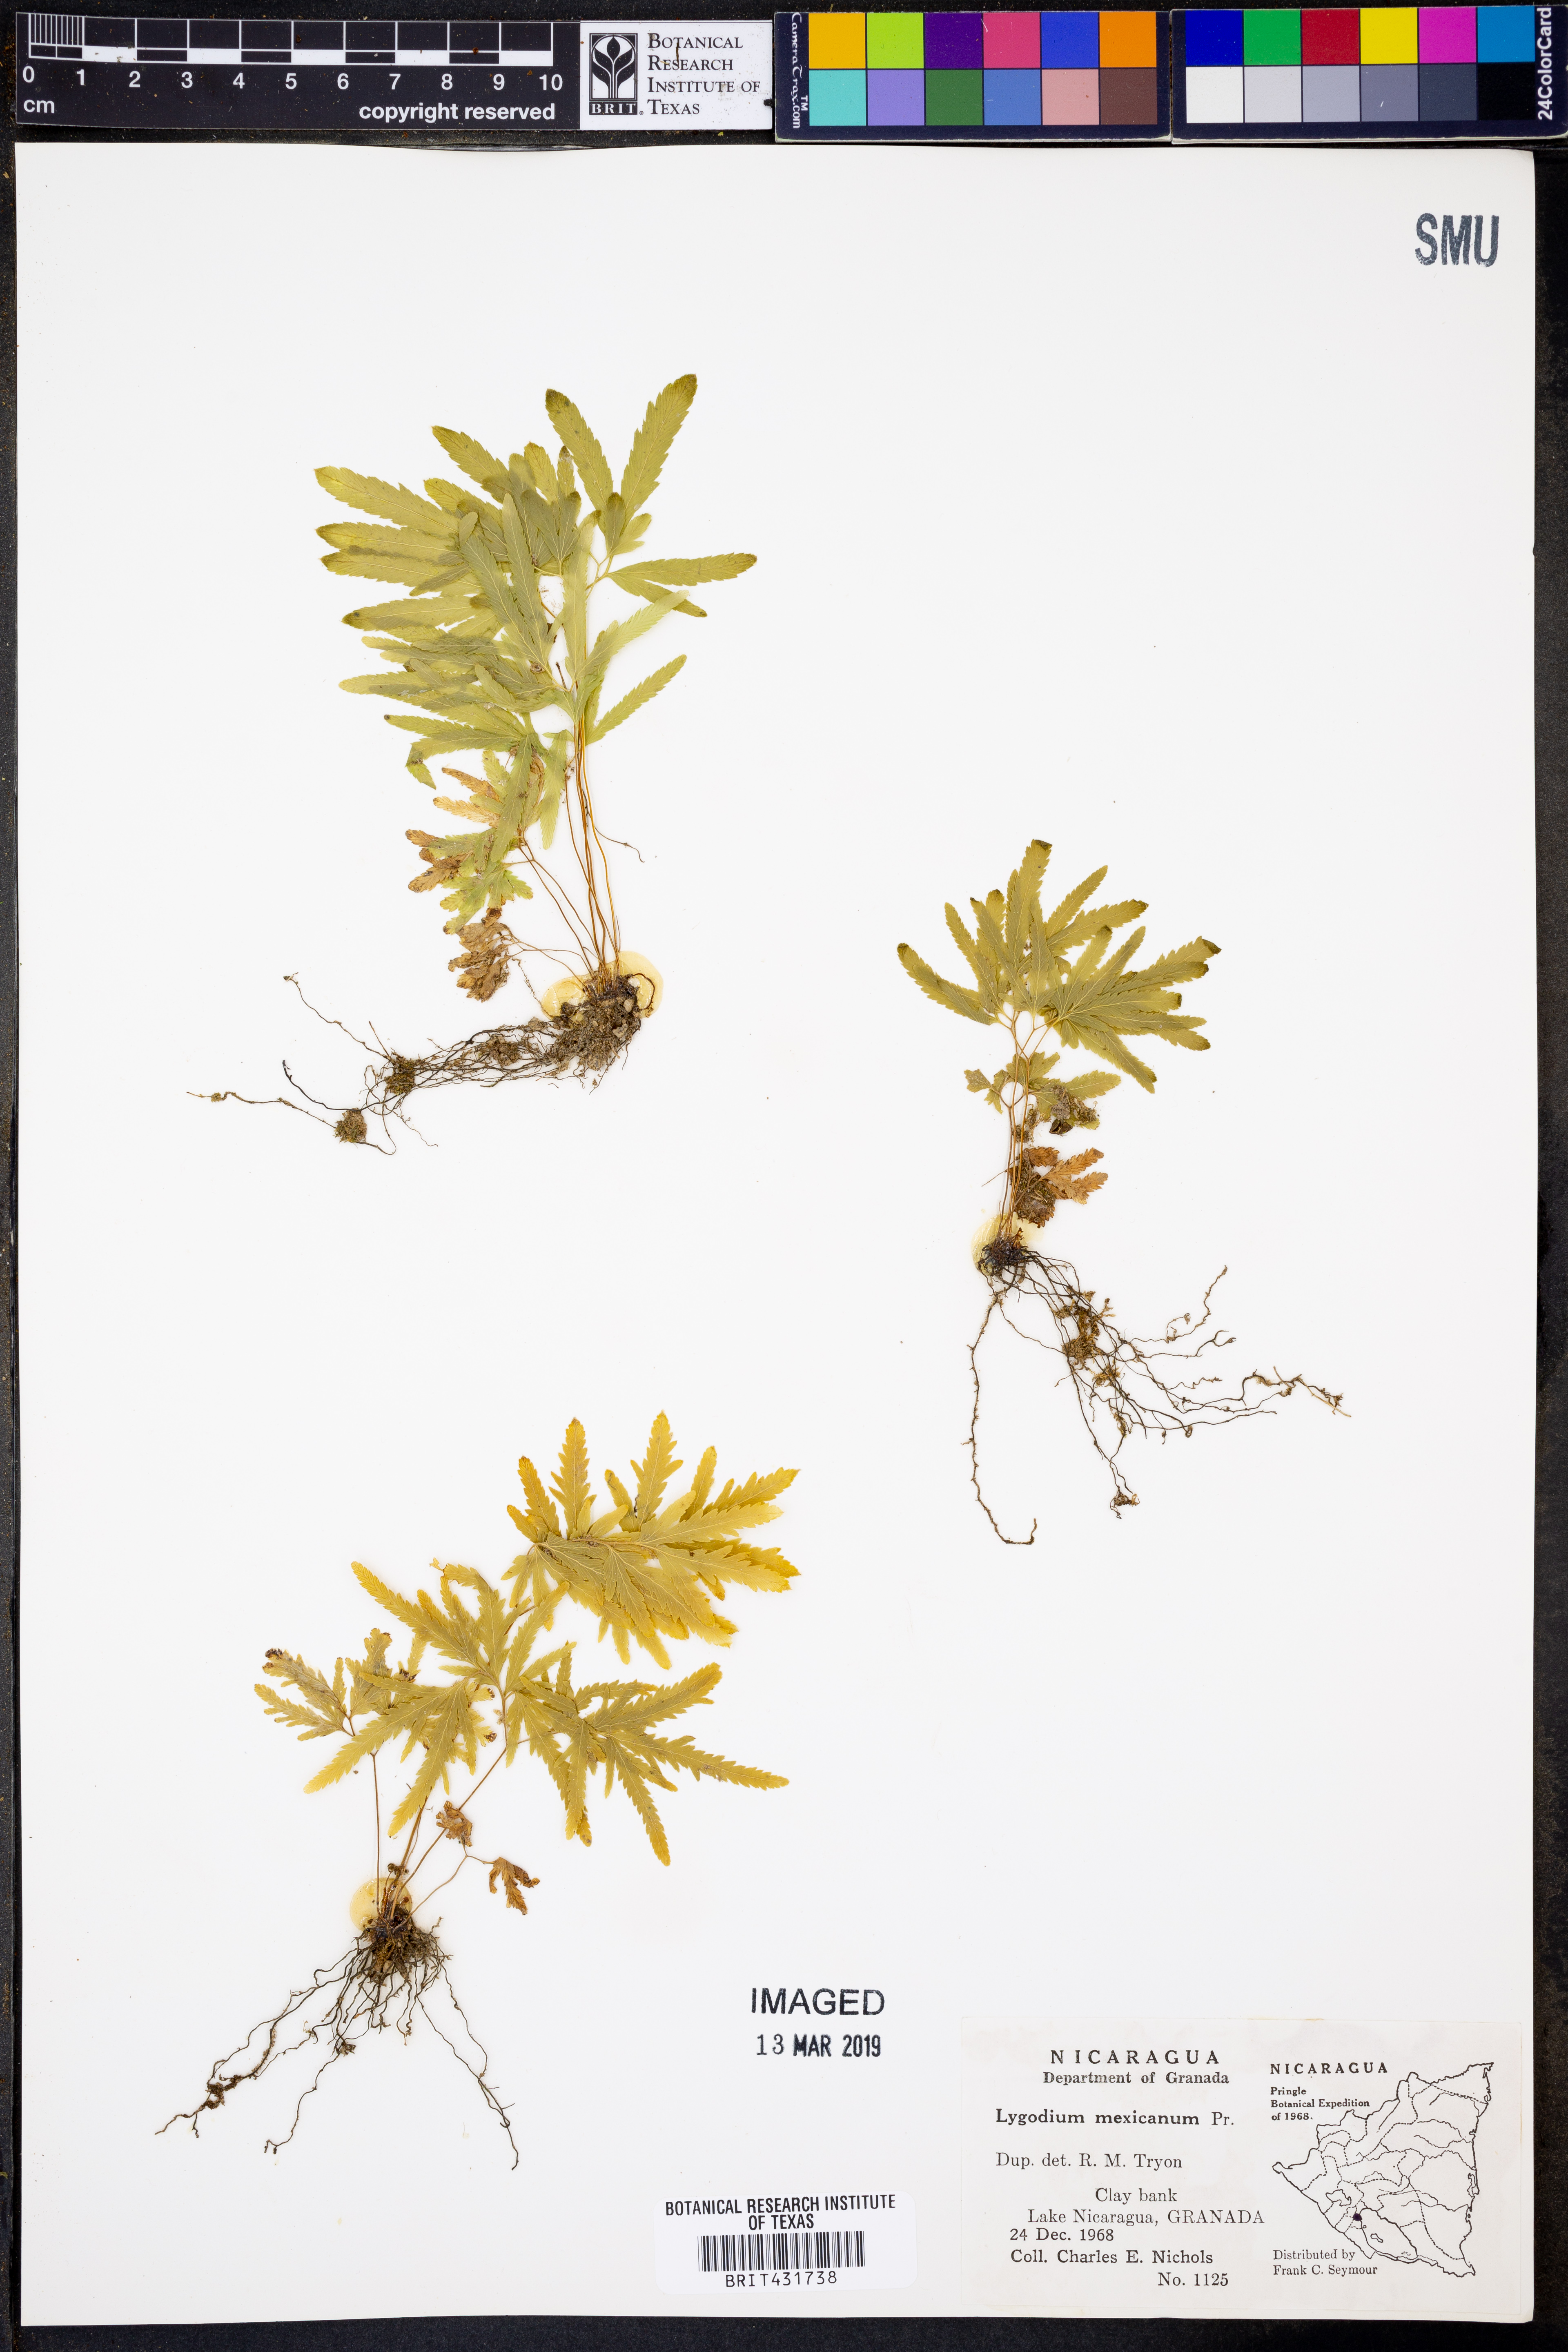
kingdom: Plantae
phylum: Tracheophyta
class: Polypodiopsida
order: Schizaeales
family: Lygodiaceae
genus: Lygodium
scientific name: Lygodium venustum
